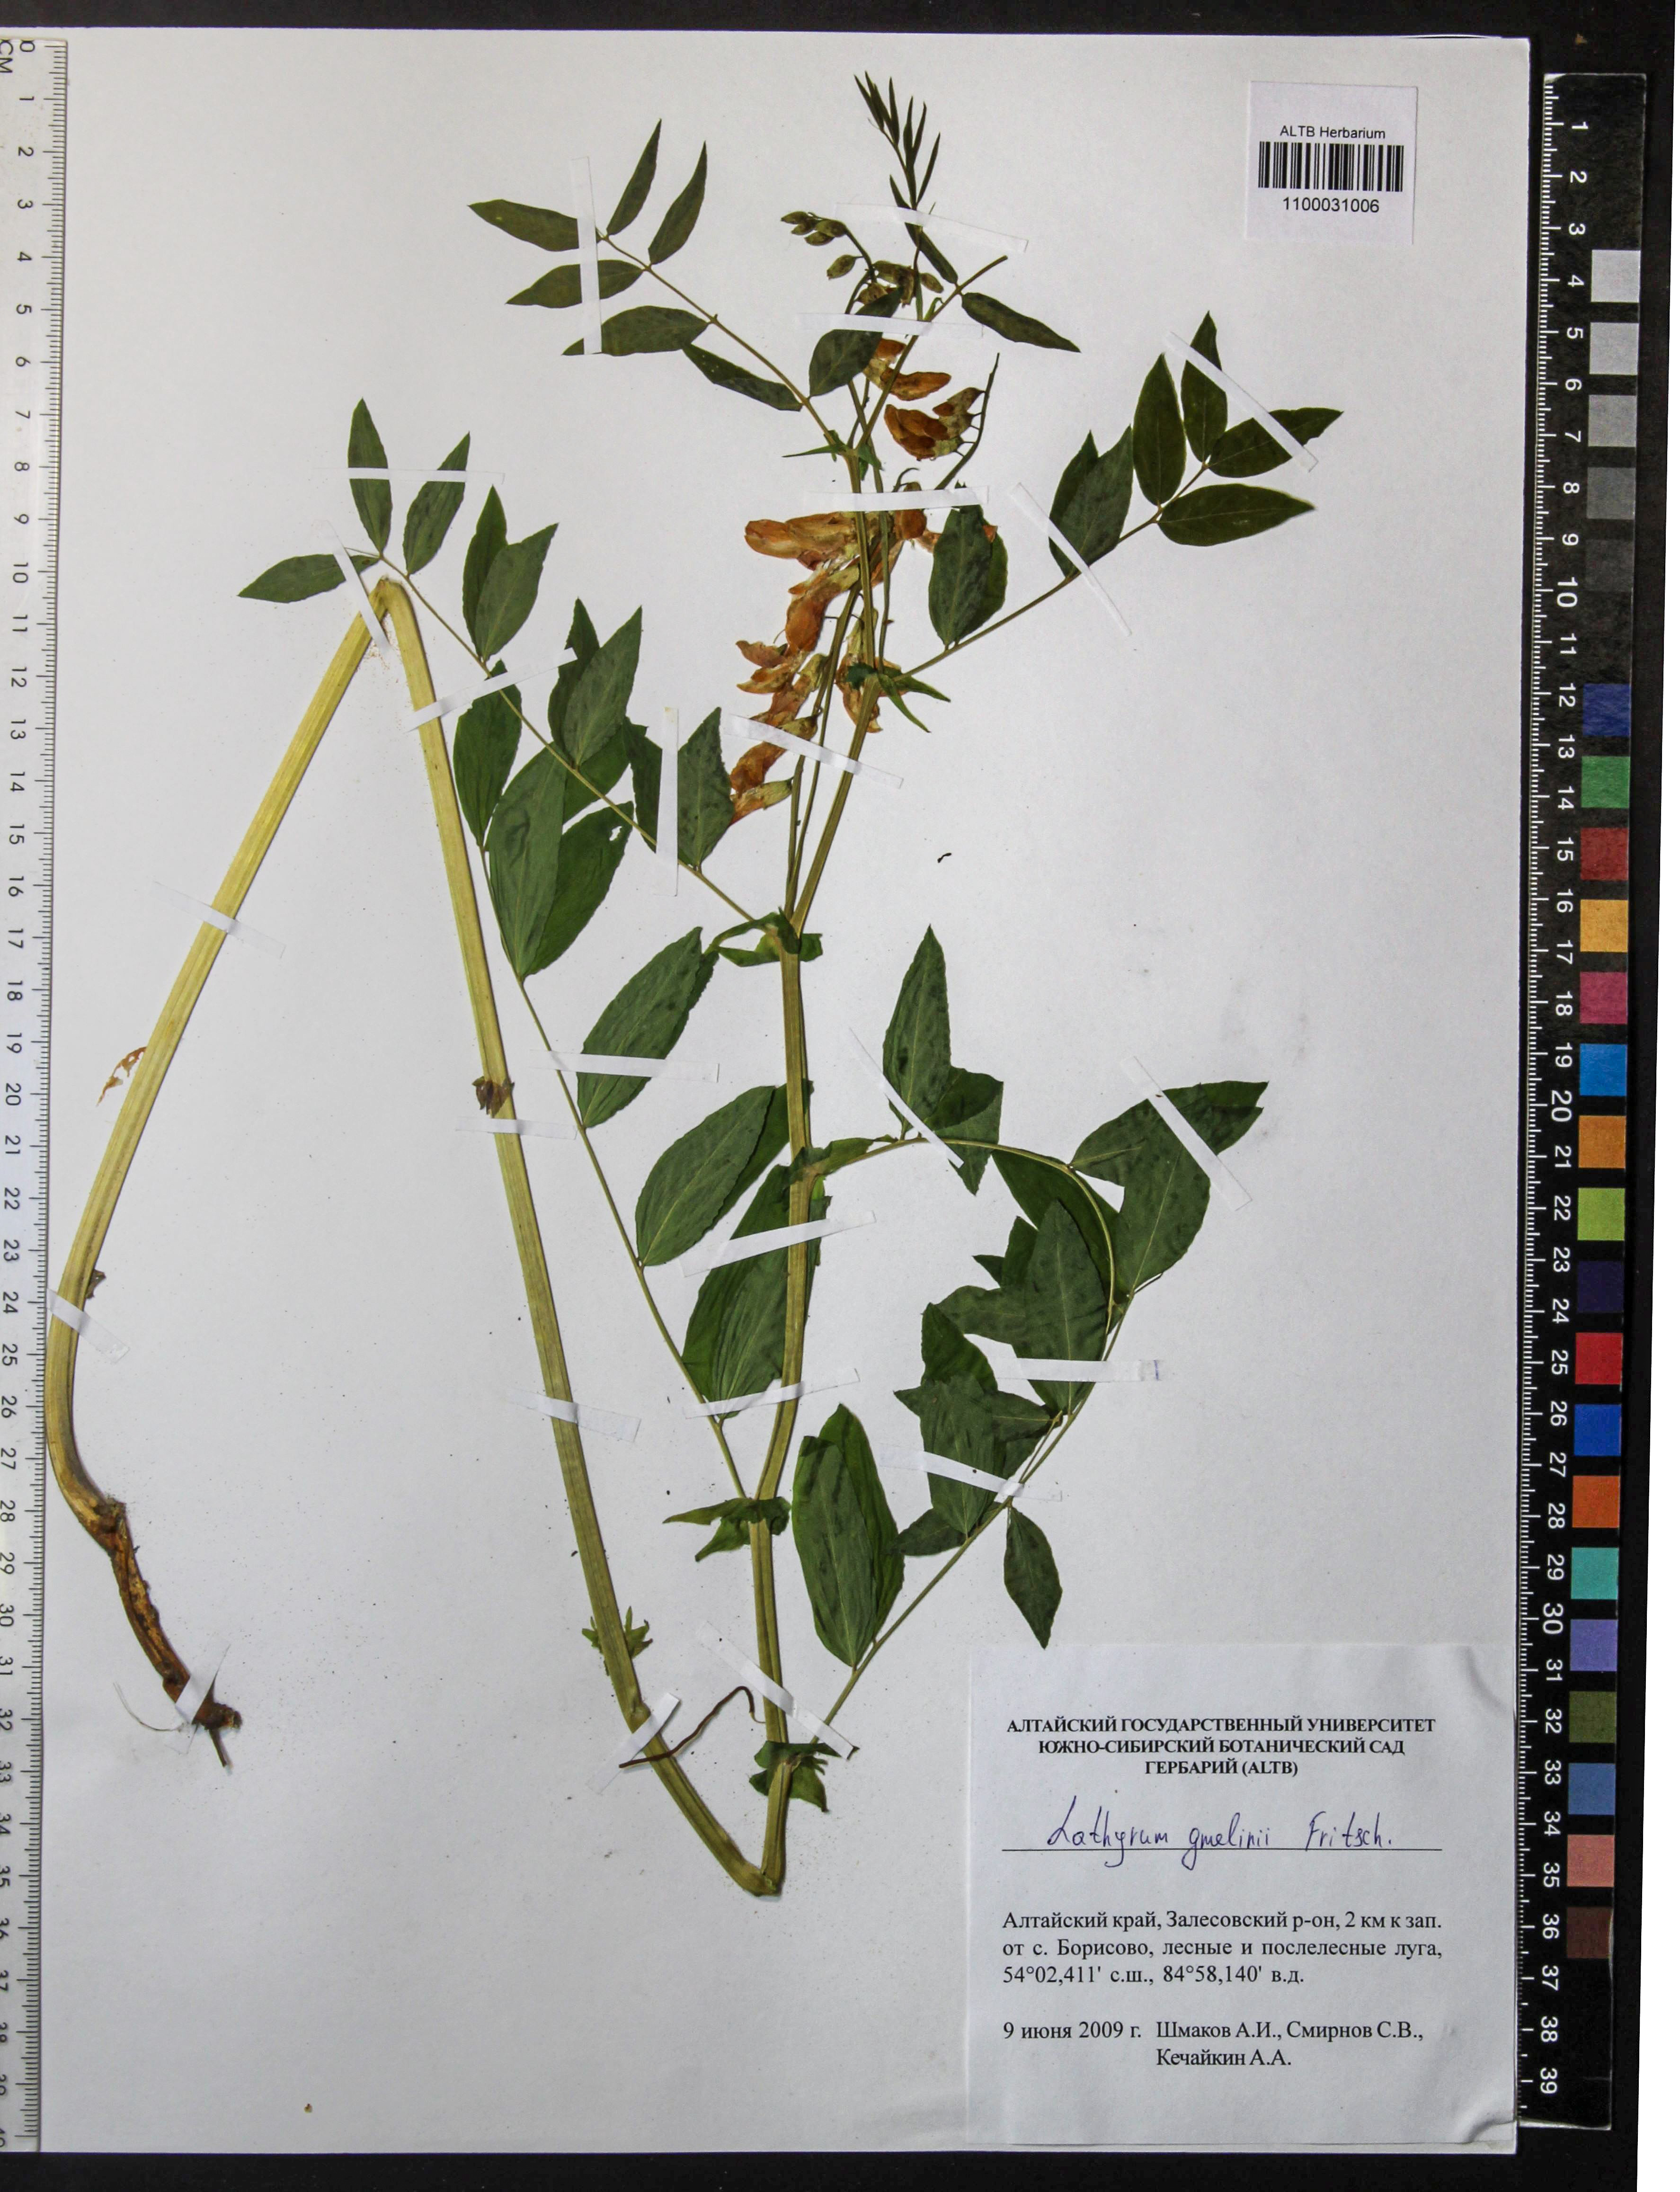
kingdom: Plantae
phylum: Tracheophyta
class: Magnoliopsida
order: Fabales
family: Fabaceae
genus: Lathyrus
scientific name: Lathyrus gmelinii
